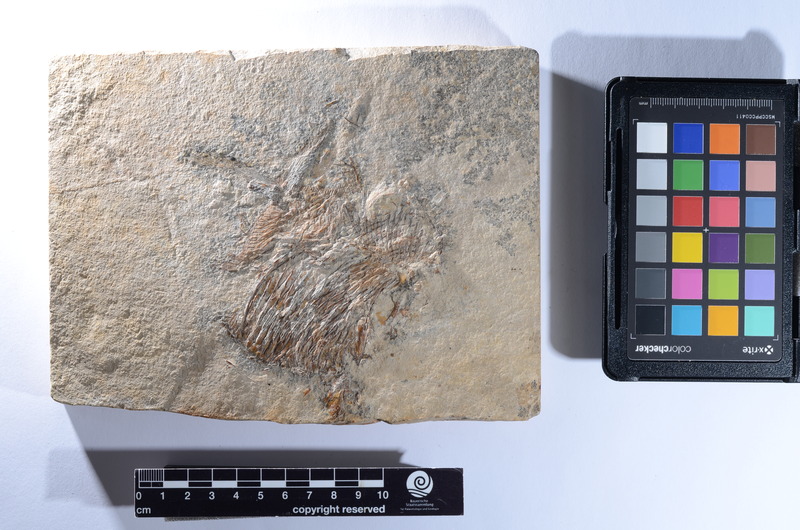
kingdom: Animalia
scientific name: Animalia
